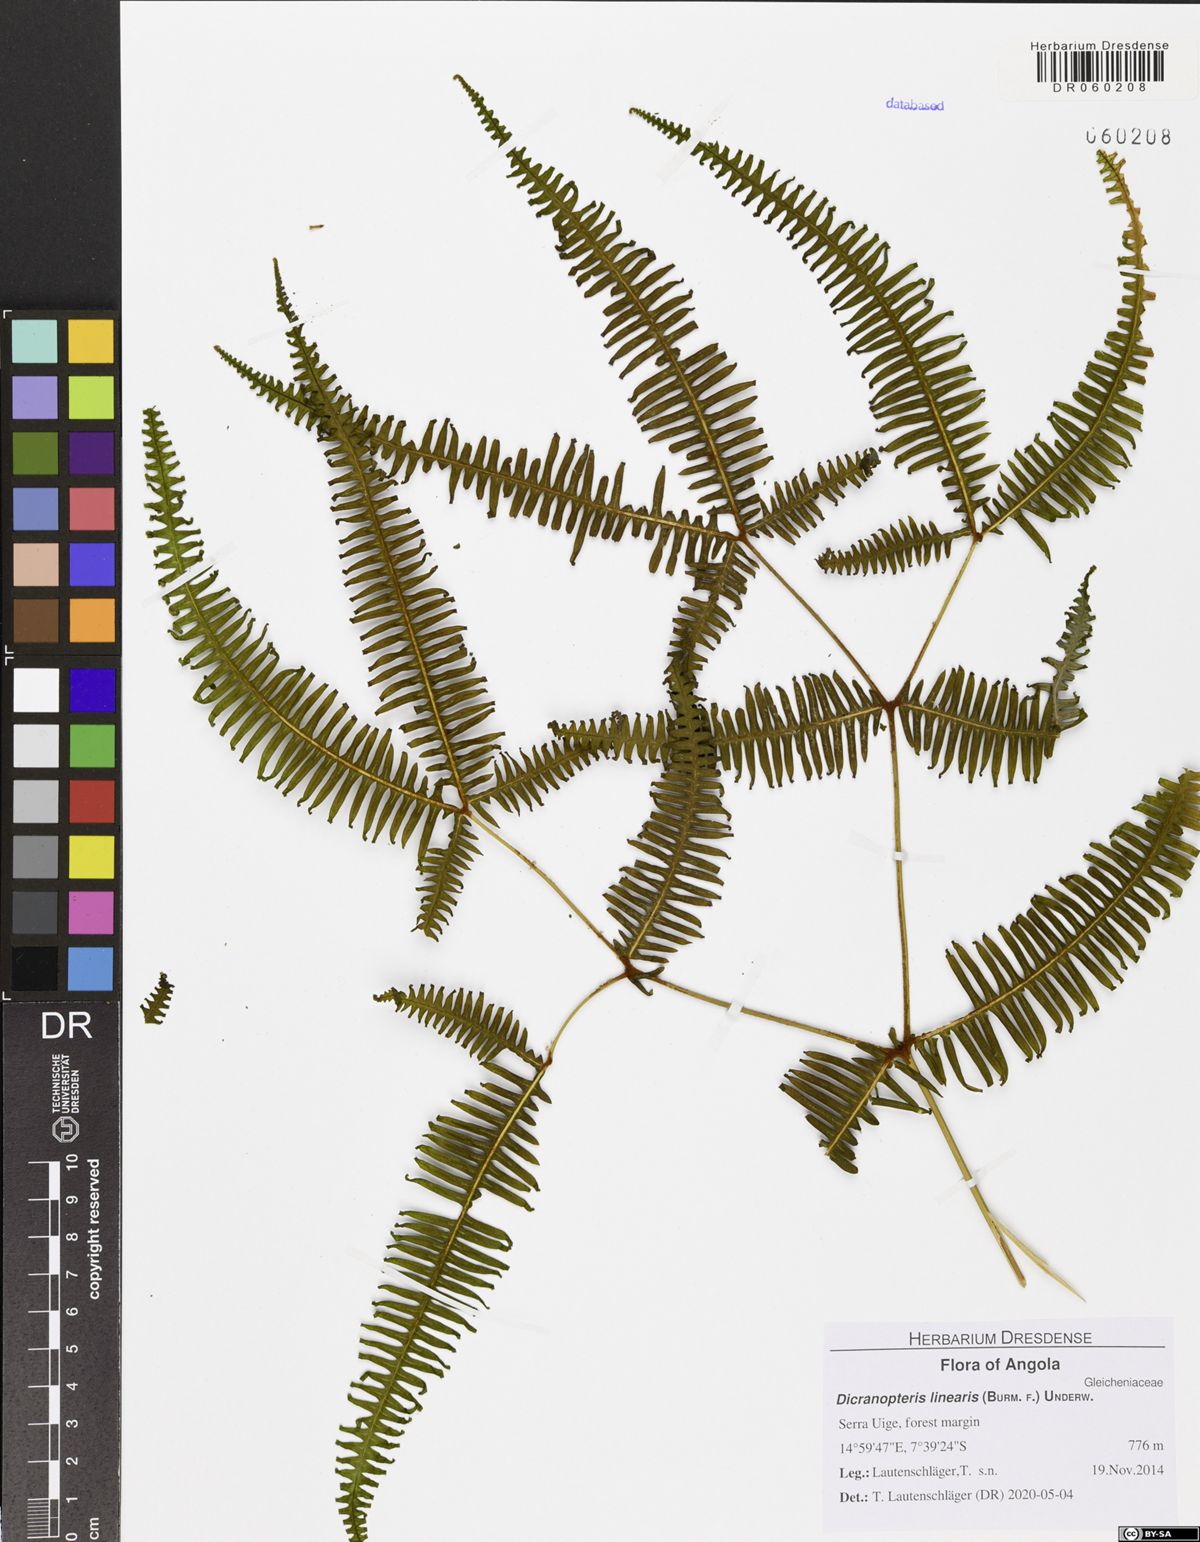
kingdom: Plantae
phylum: Tracheophyta
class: Polypodiopsida
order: Gleicheniales
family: Gleicheniaceae
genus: Dicranopteris
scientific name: Dicranopteris linearis
